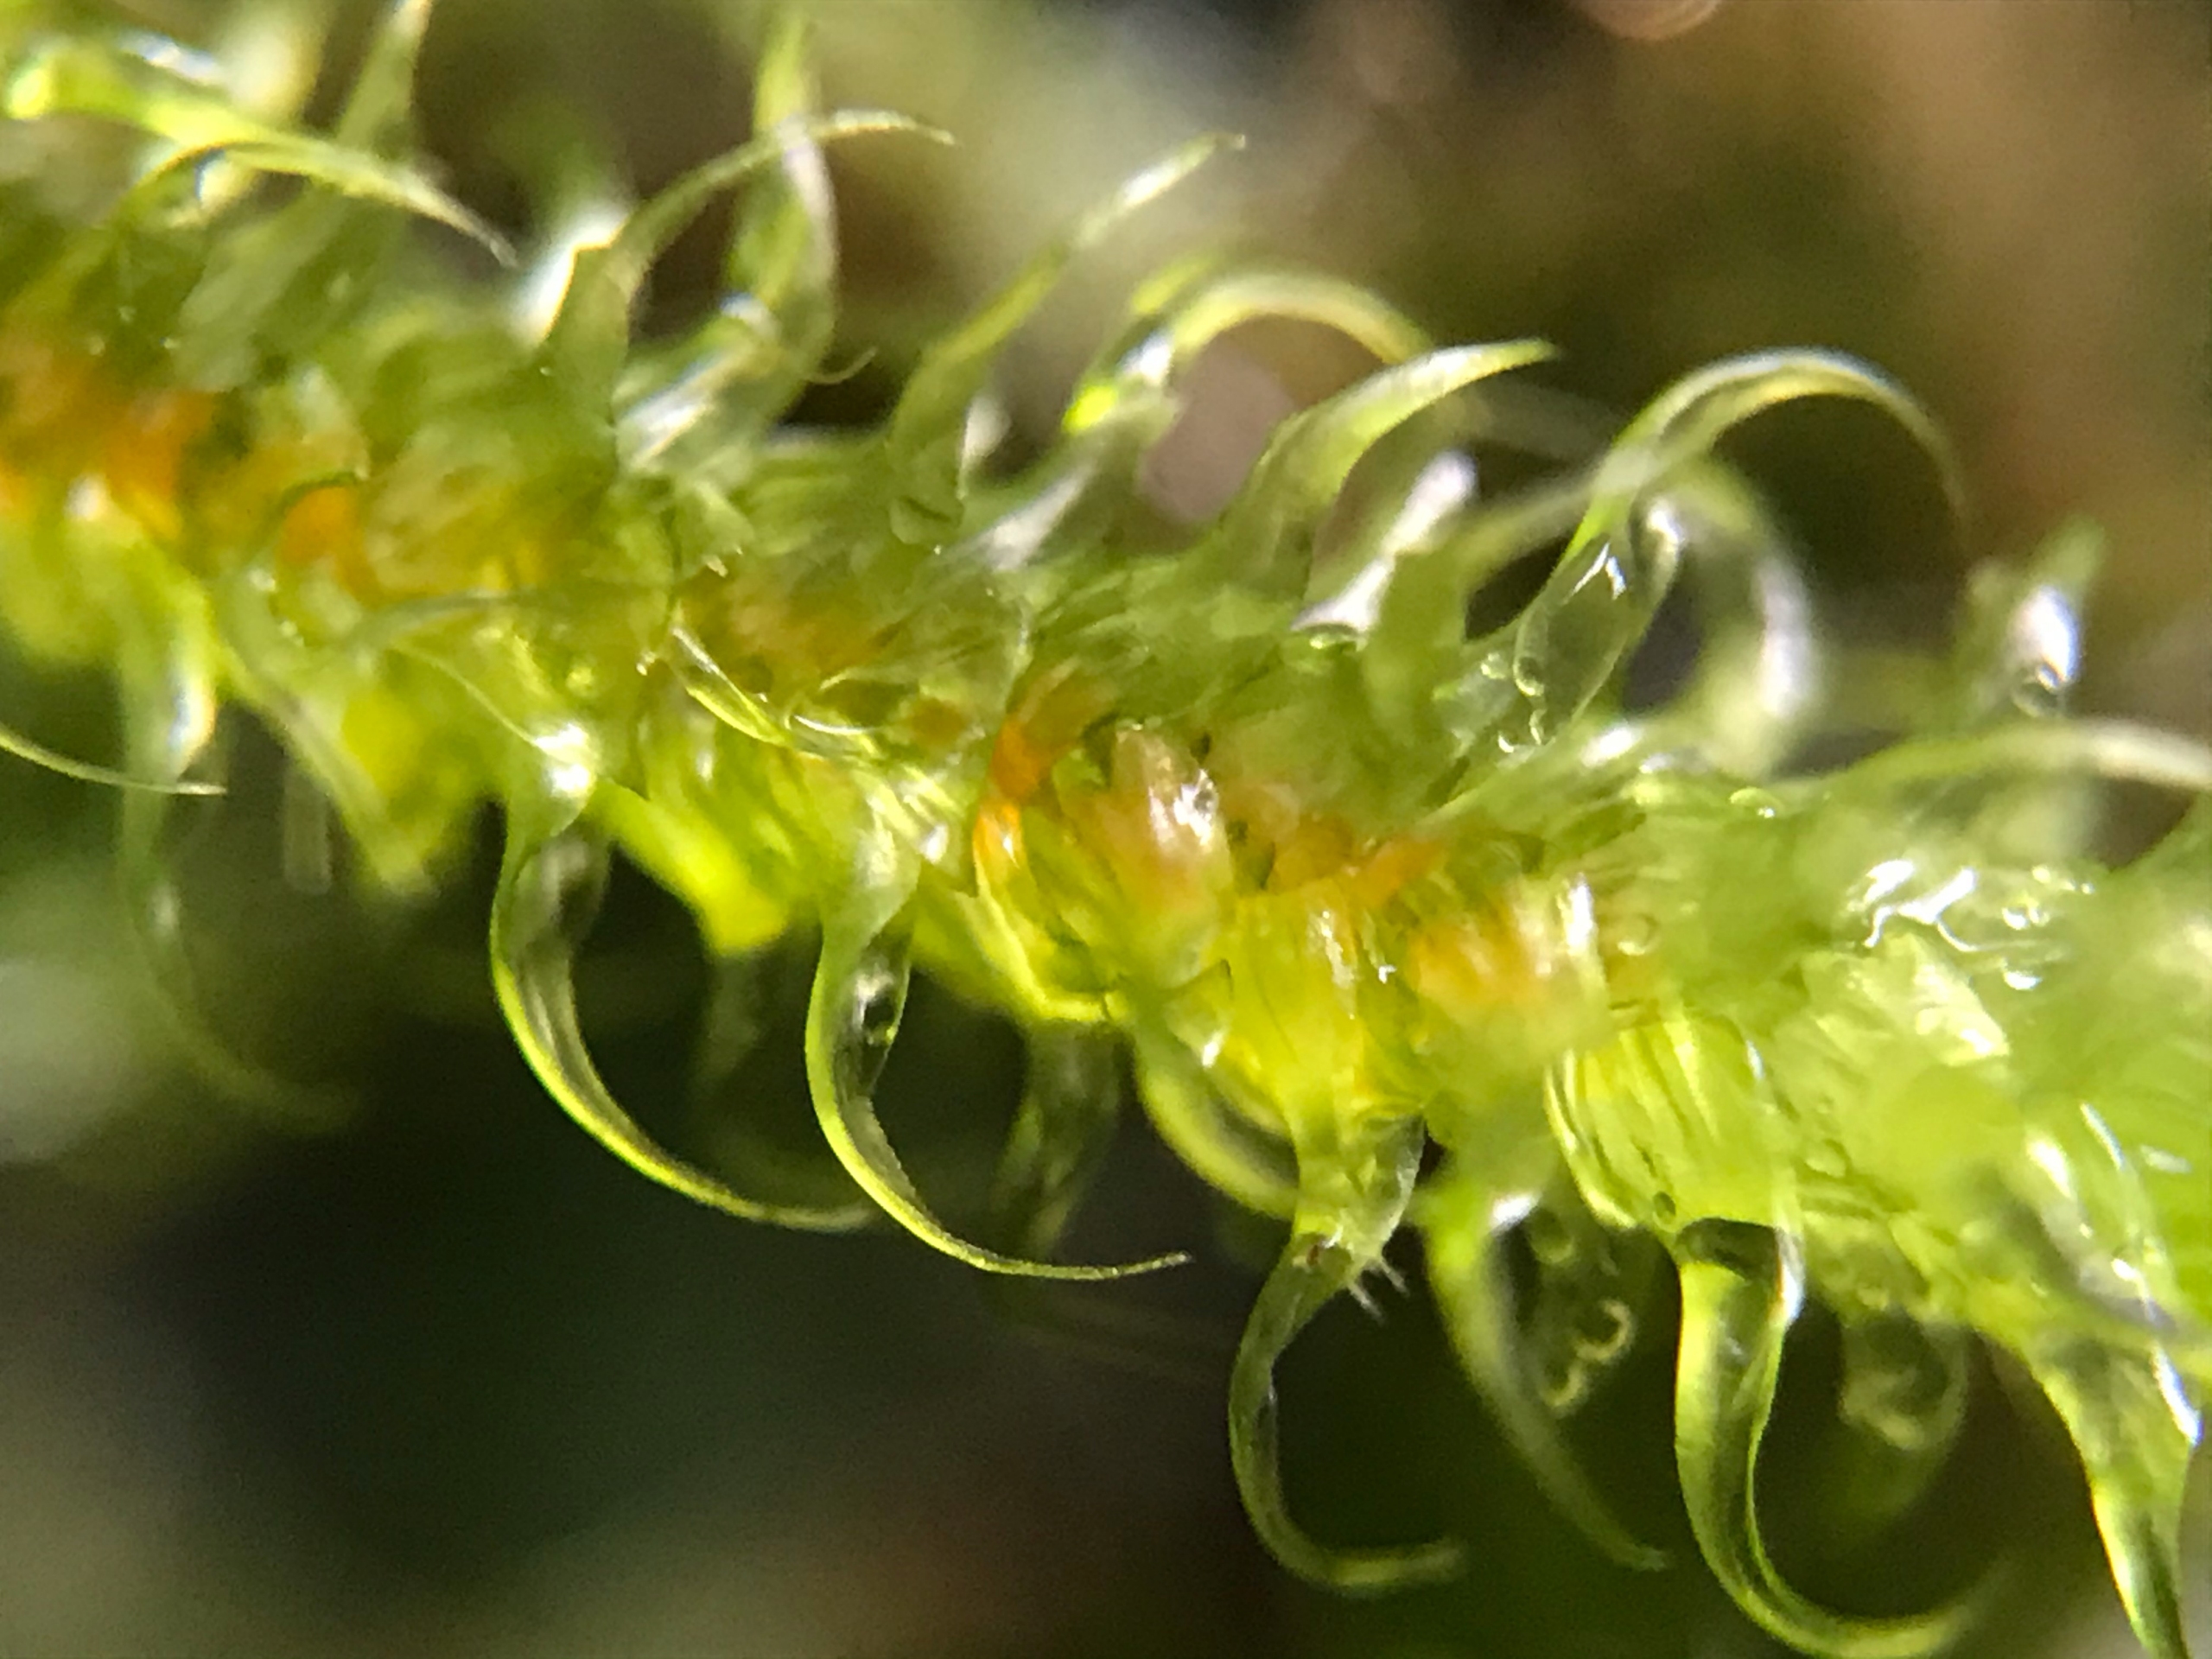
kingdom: Plantae
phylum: Bryophyta
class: Bryopsida
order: Hypnales
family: Hylocomiaceae
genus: Rhytidiadelphus
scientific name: Rhytidiadelphus loreus
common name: Ulvefod-kransemos
